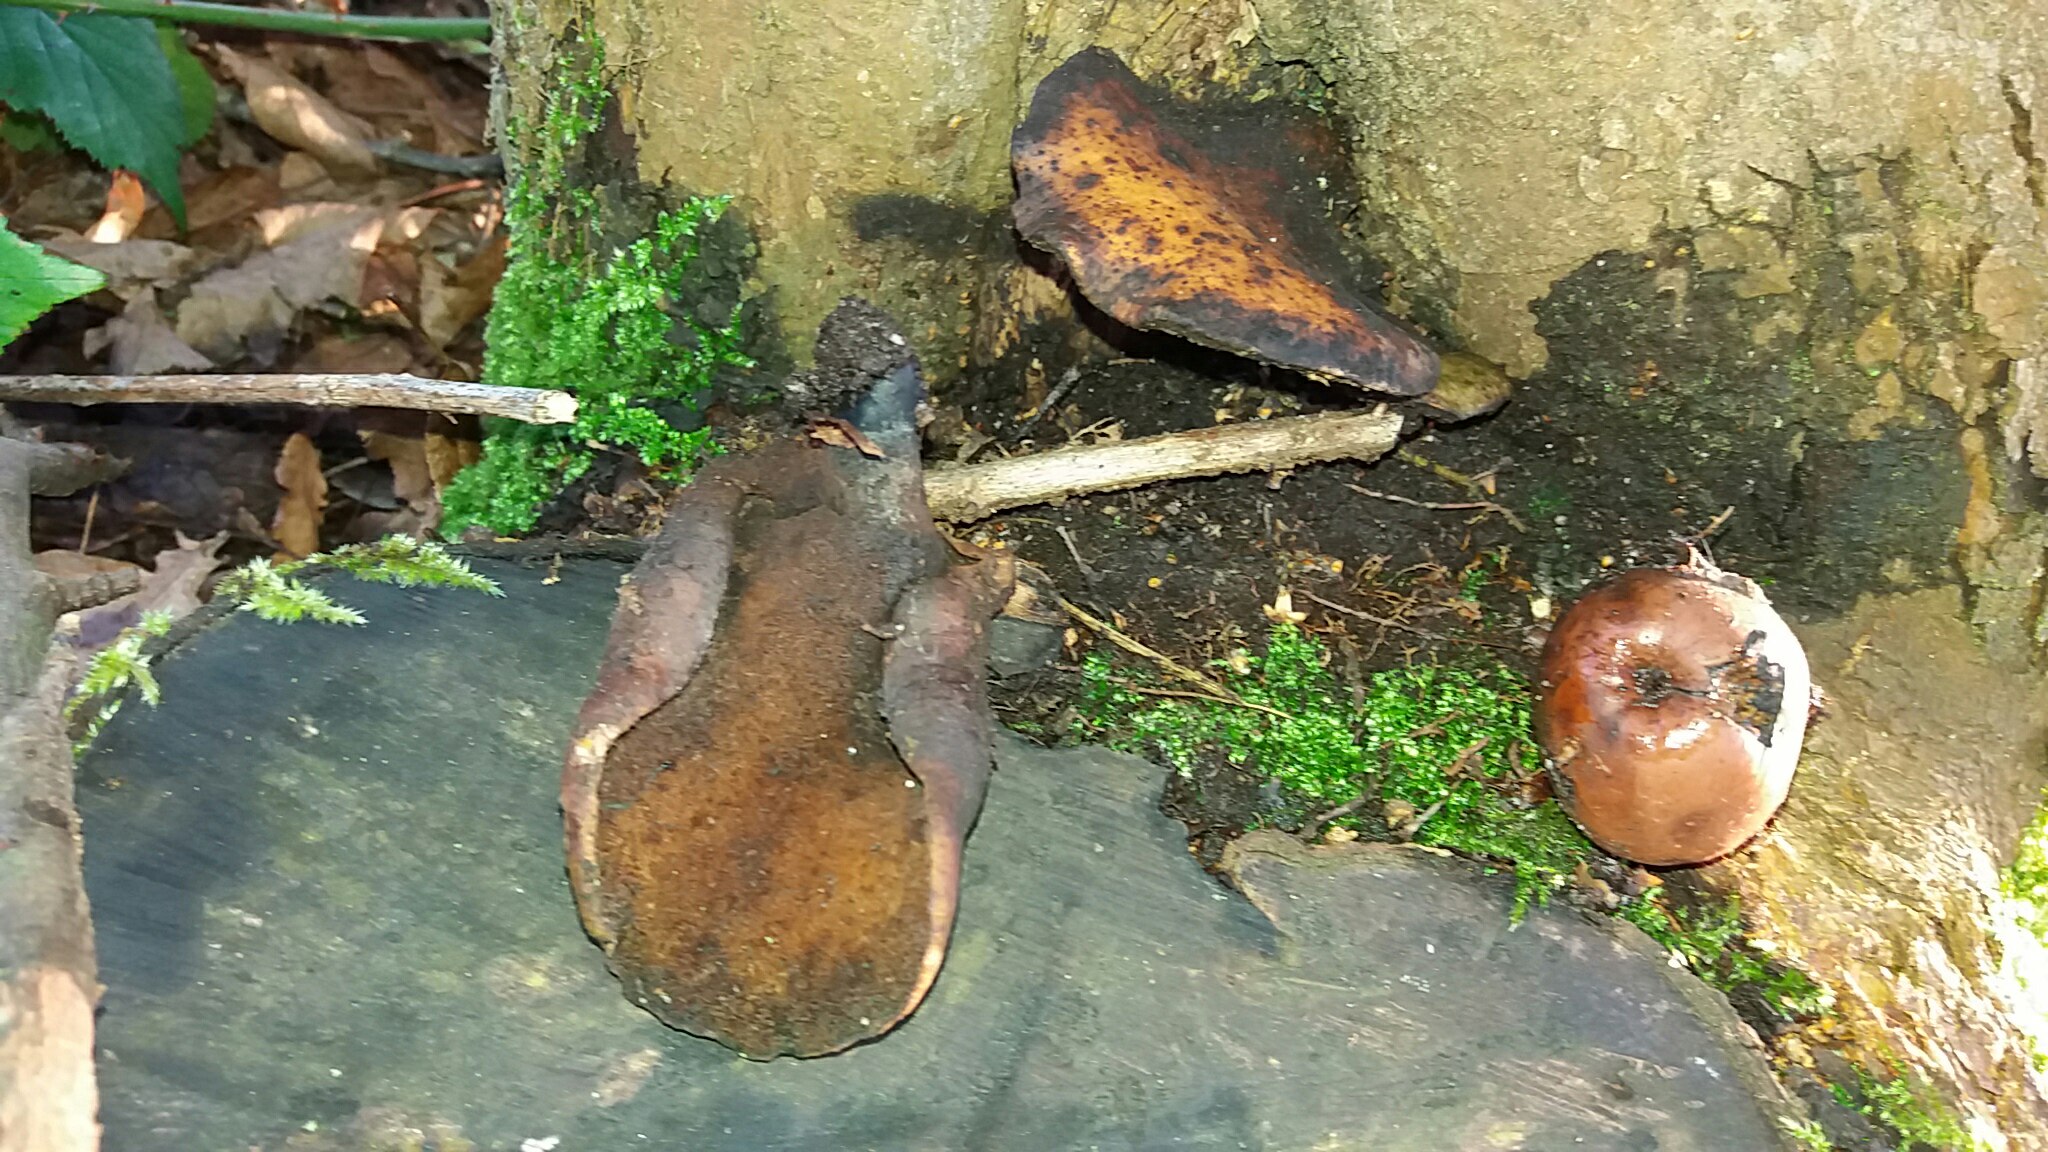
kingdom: Fungi
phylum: Basidiomycota
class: Agaricomycetes
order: Polyporales
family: Polyporaceae
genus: Cerioporus
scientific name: Cerioporus varius
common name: foranderlig stilkporesvamp
